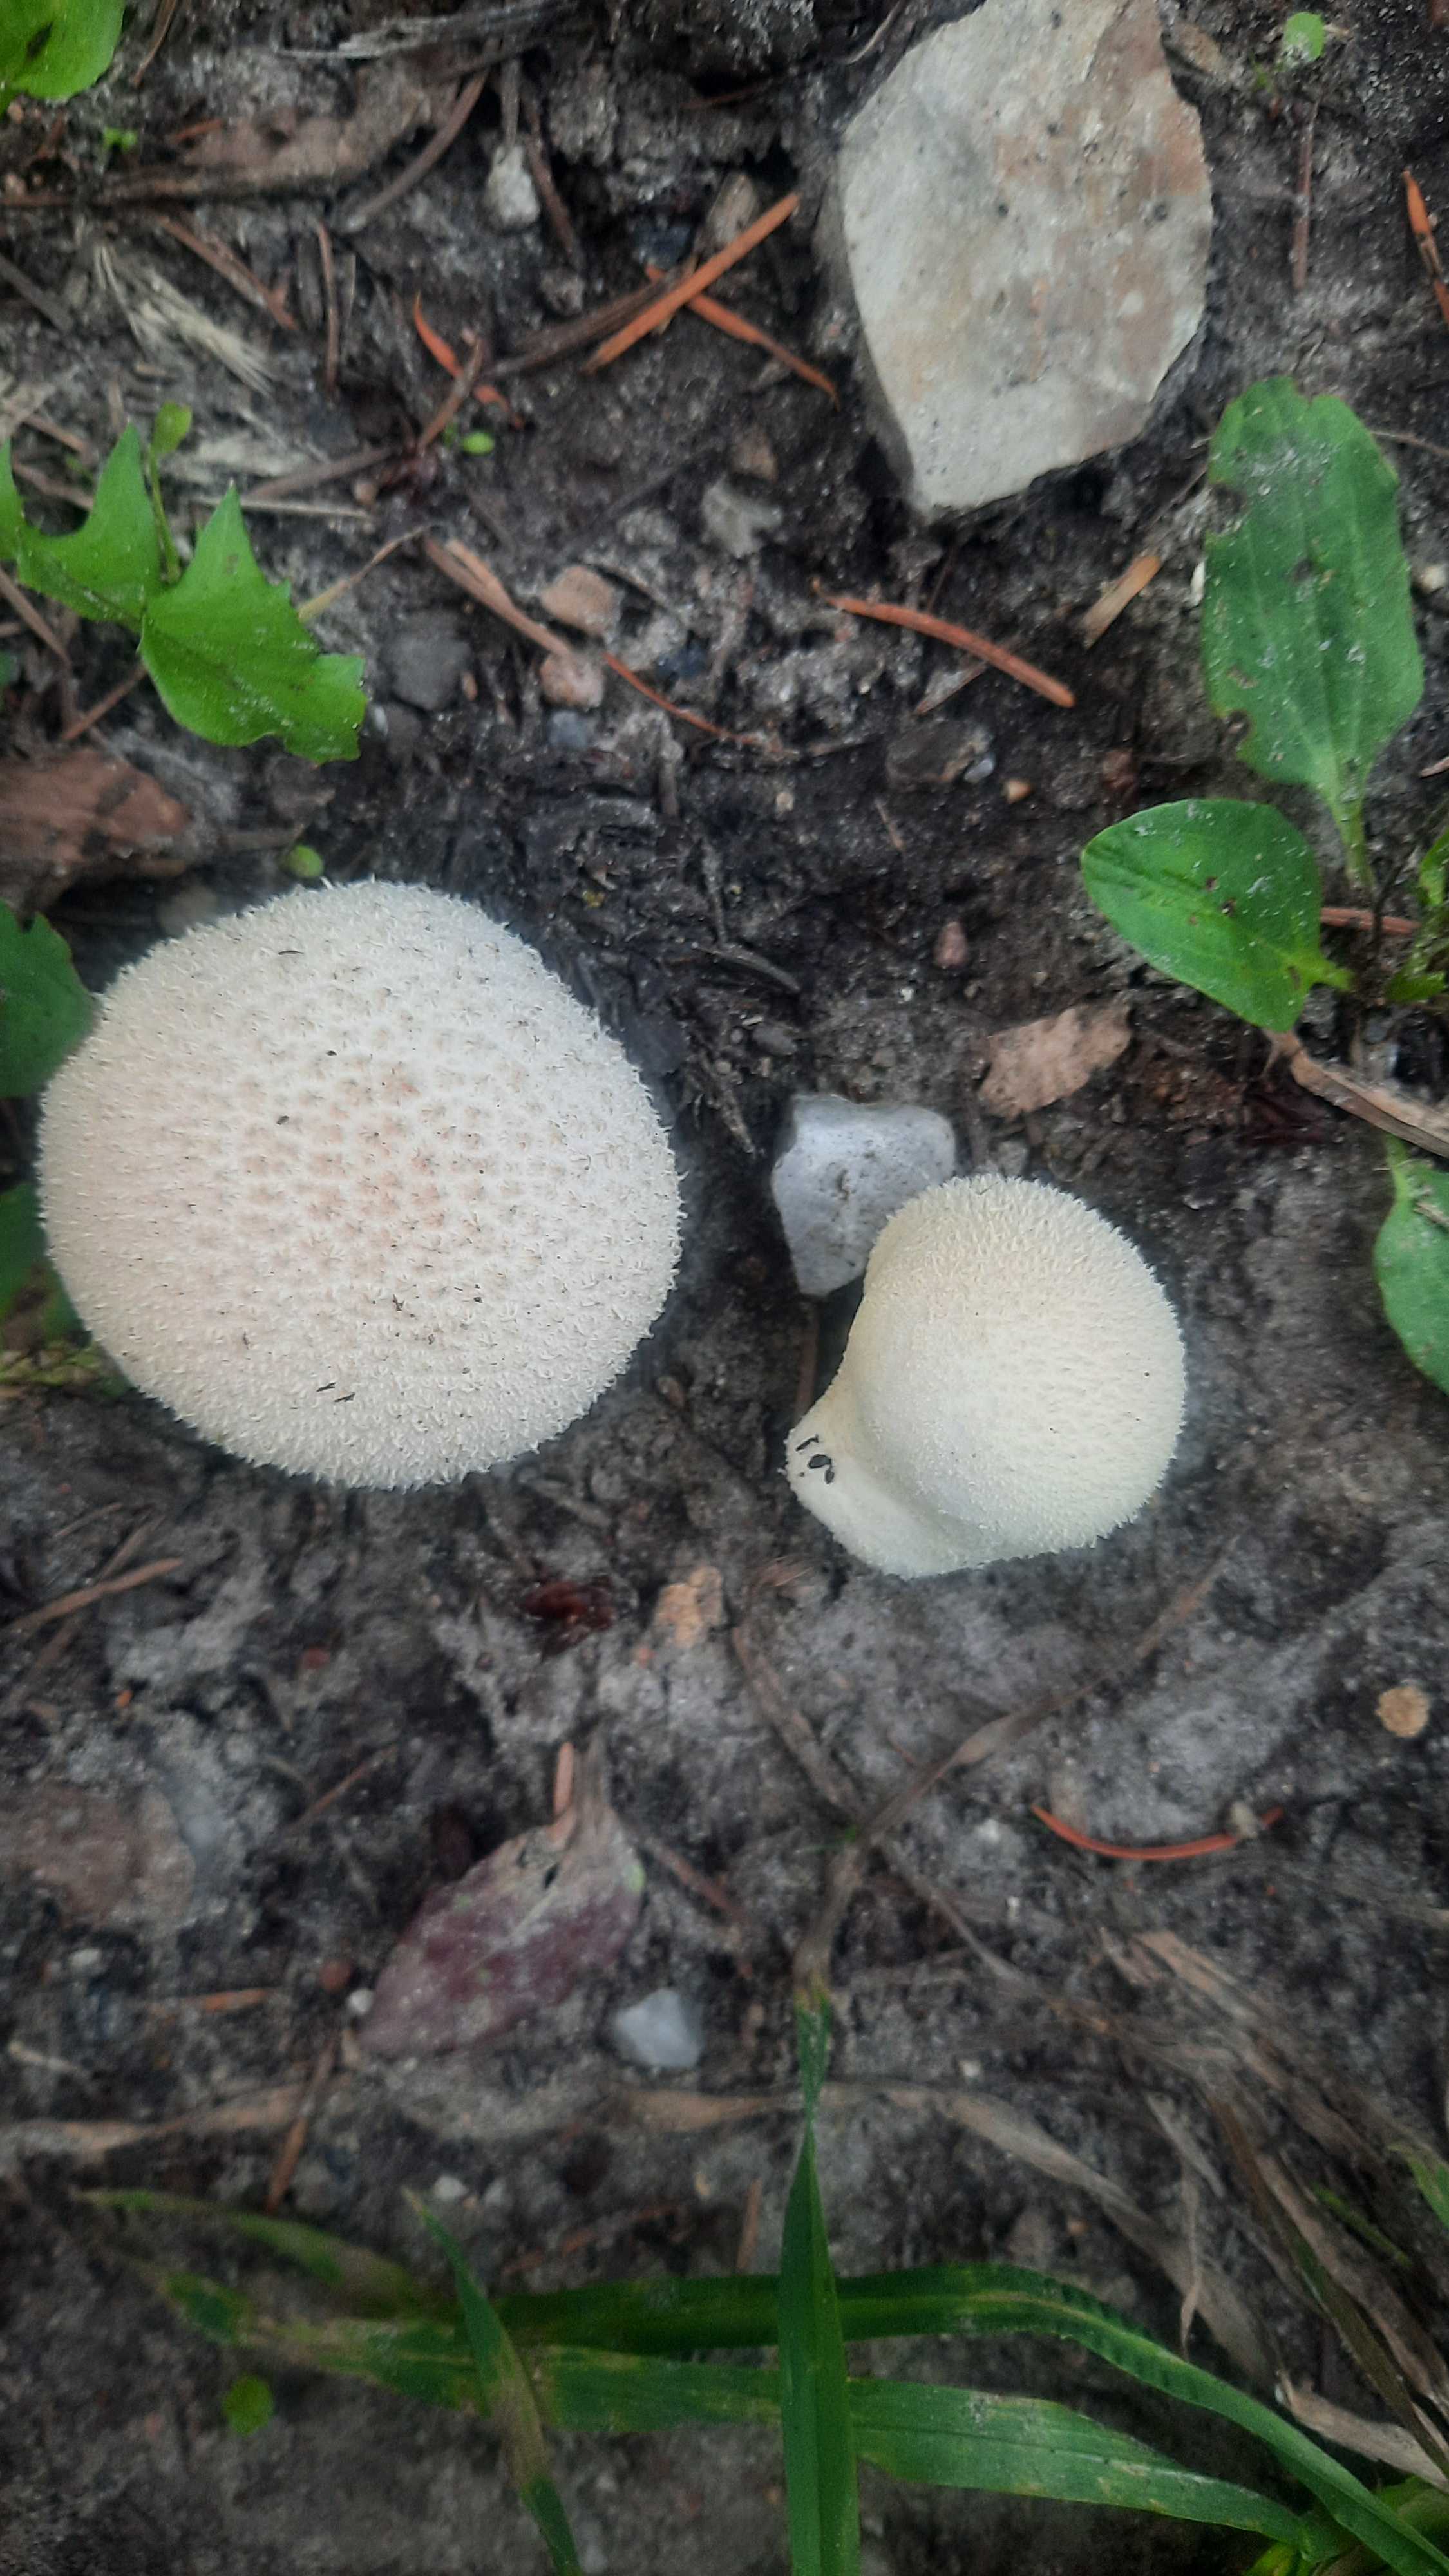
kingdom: Fungi
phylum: Basidiomycota
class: Agaricomycetes
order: Agaricales
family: Lycoperdaceae
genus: Lycoperdon
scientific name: Lycoperdon perlatum
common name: krystal-støvbold
